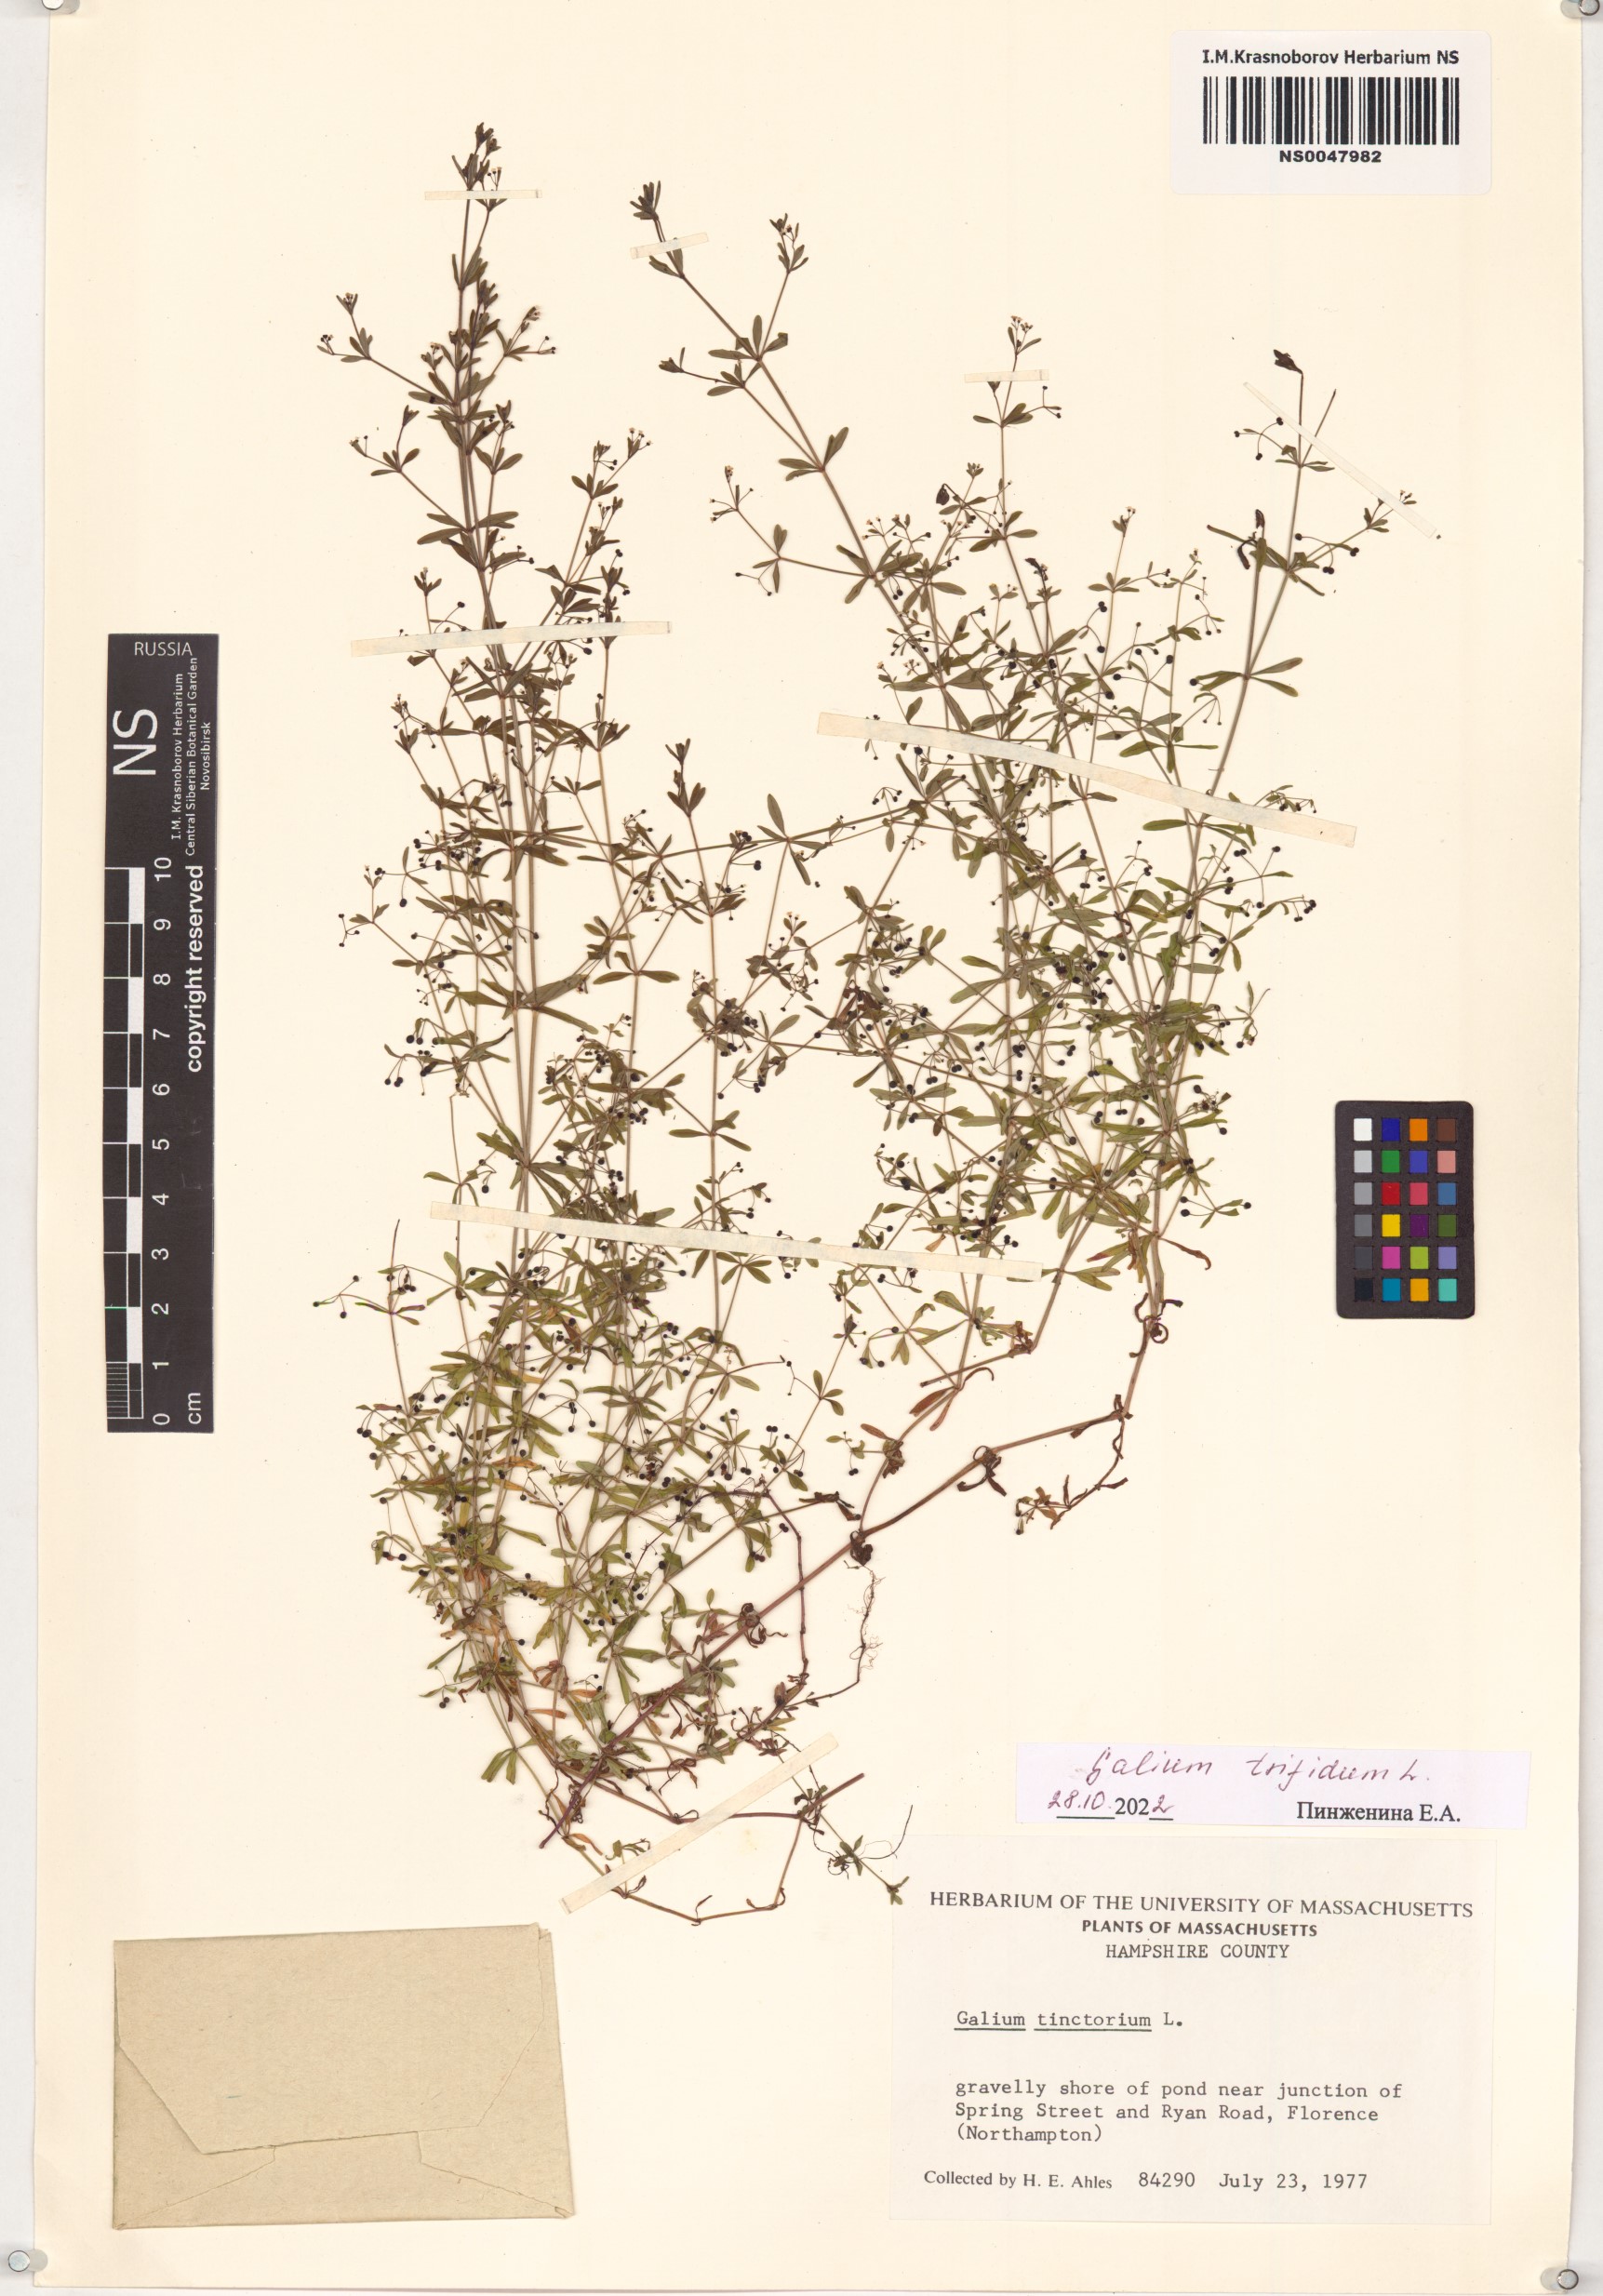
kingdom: Plantae
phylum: Tracheophyta
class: Magnoliopsida
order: Gentianales
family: Rubiaceae
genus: Galium
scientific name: Galium trifidum
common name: Small bedstraw
